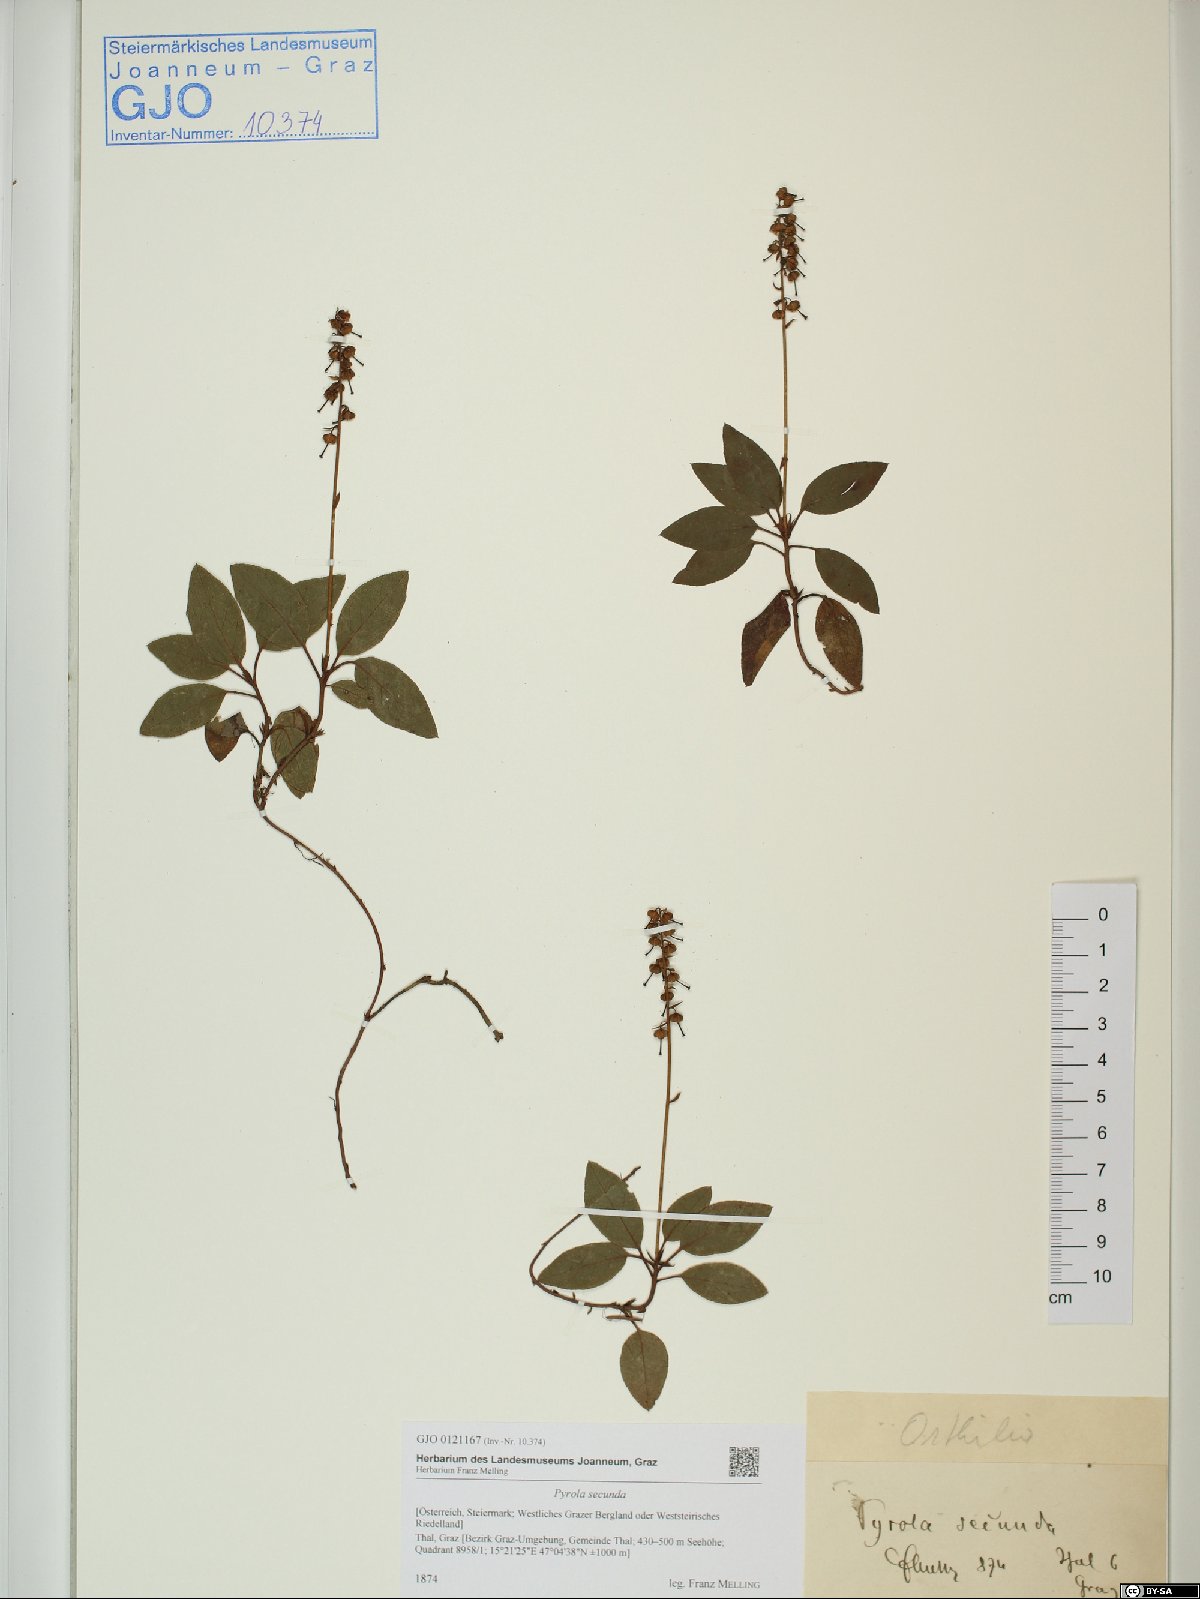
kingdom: Plantae
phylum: Tracheophyta
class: Magnoliopsida
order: Ericales
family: Ericaceae
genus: Orthilia
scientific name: Orthilia secunda
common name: One-sided orthilia
